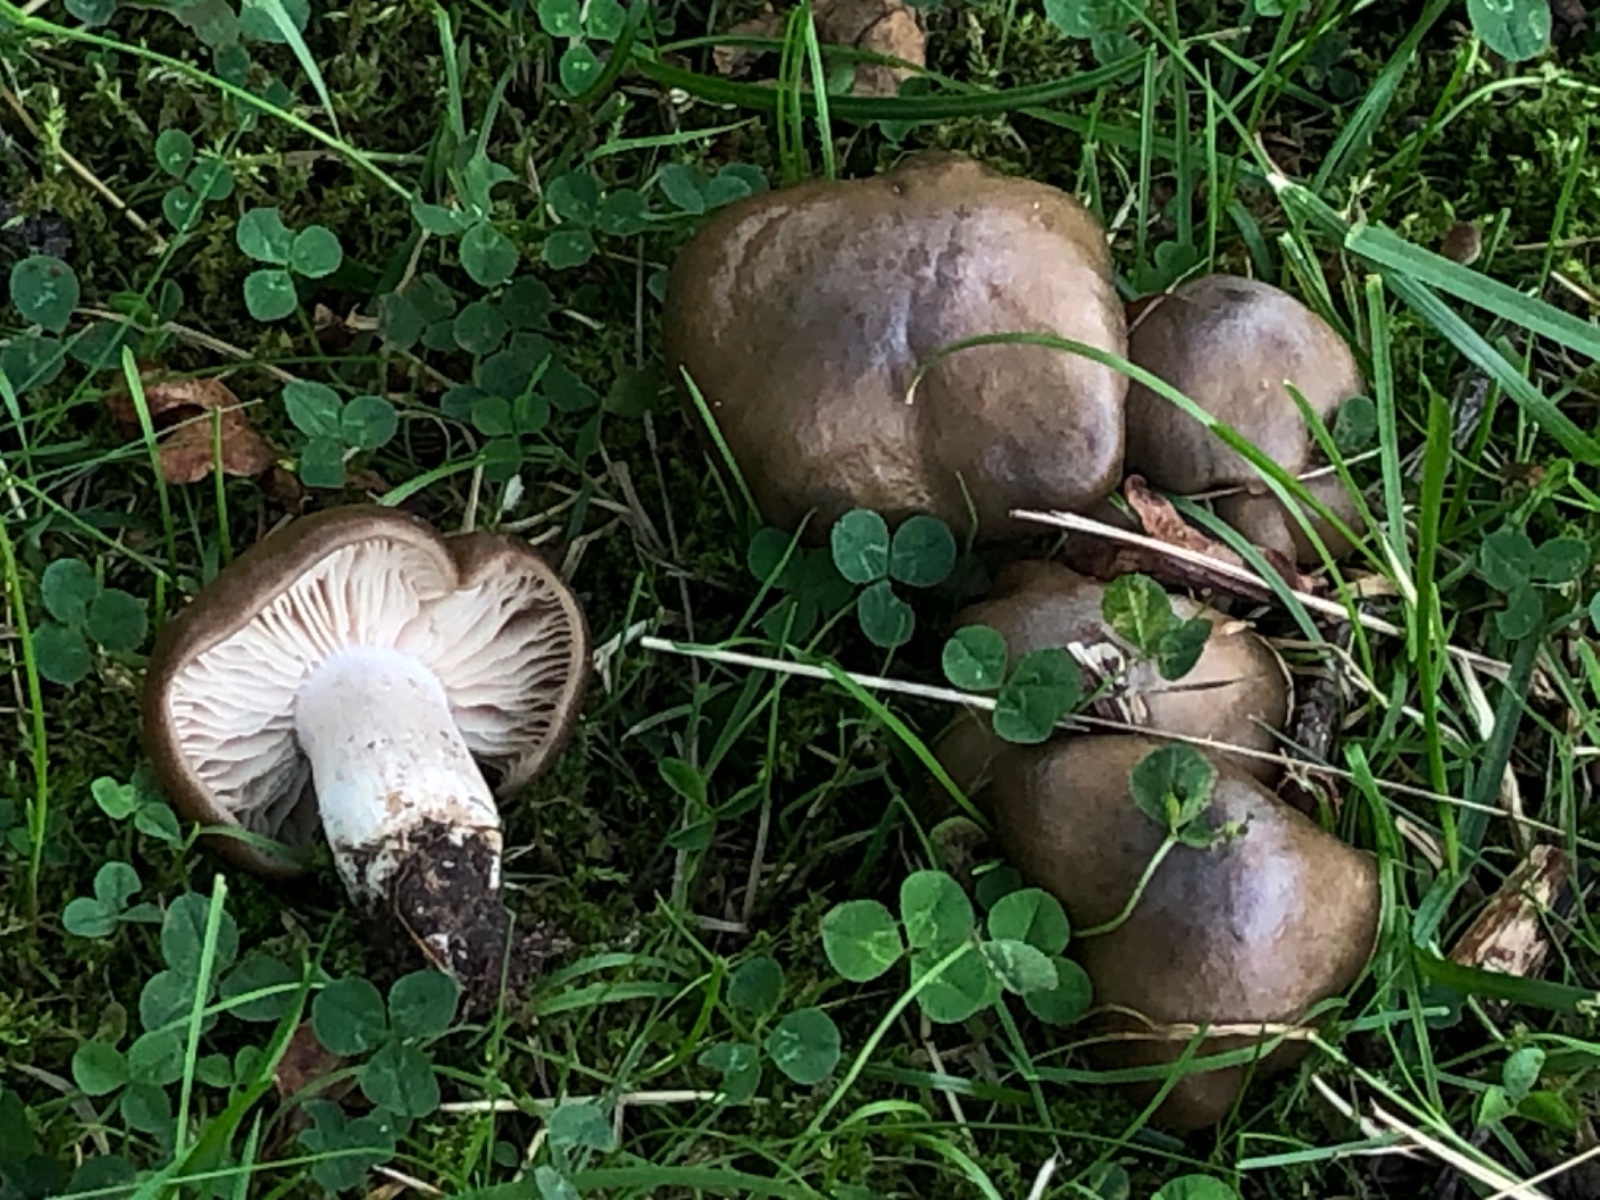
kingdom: Fungi
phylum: Basidiomycota
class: Agaricomycetes
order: Agaricales
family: Entolomataceae
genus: Entoloma
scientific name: Entoloma lividoalbum
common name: lysstokket rødblad
